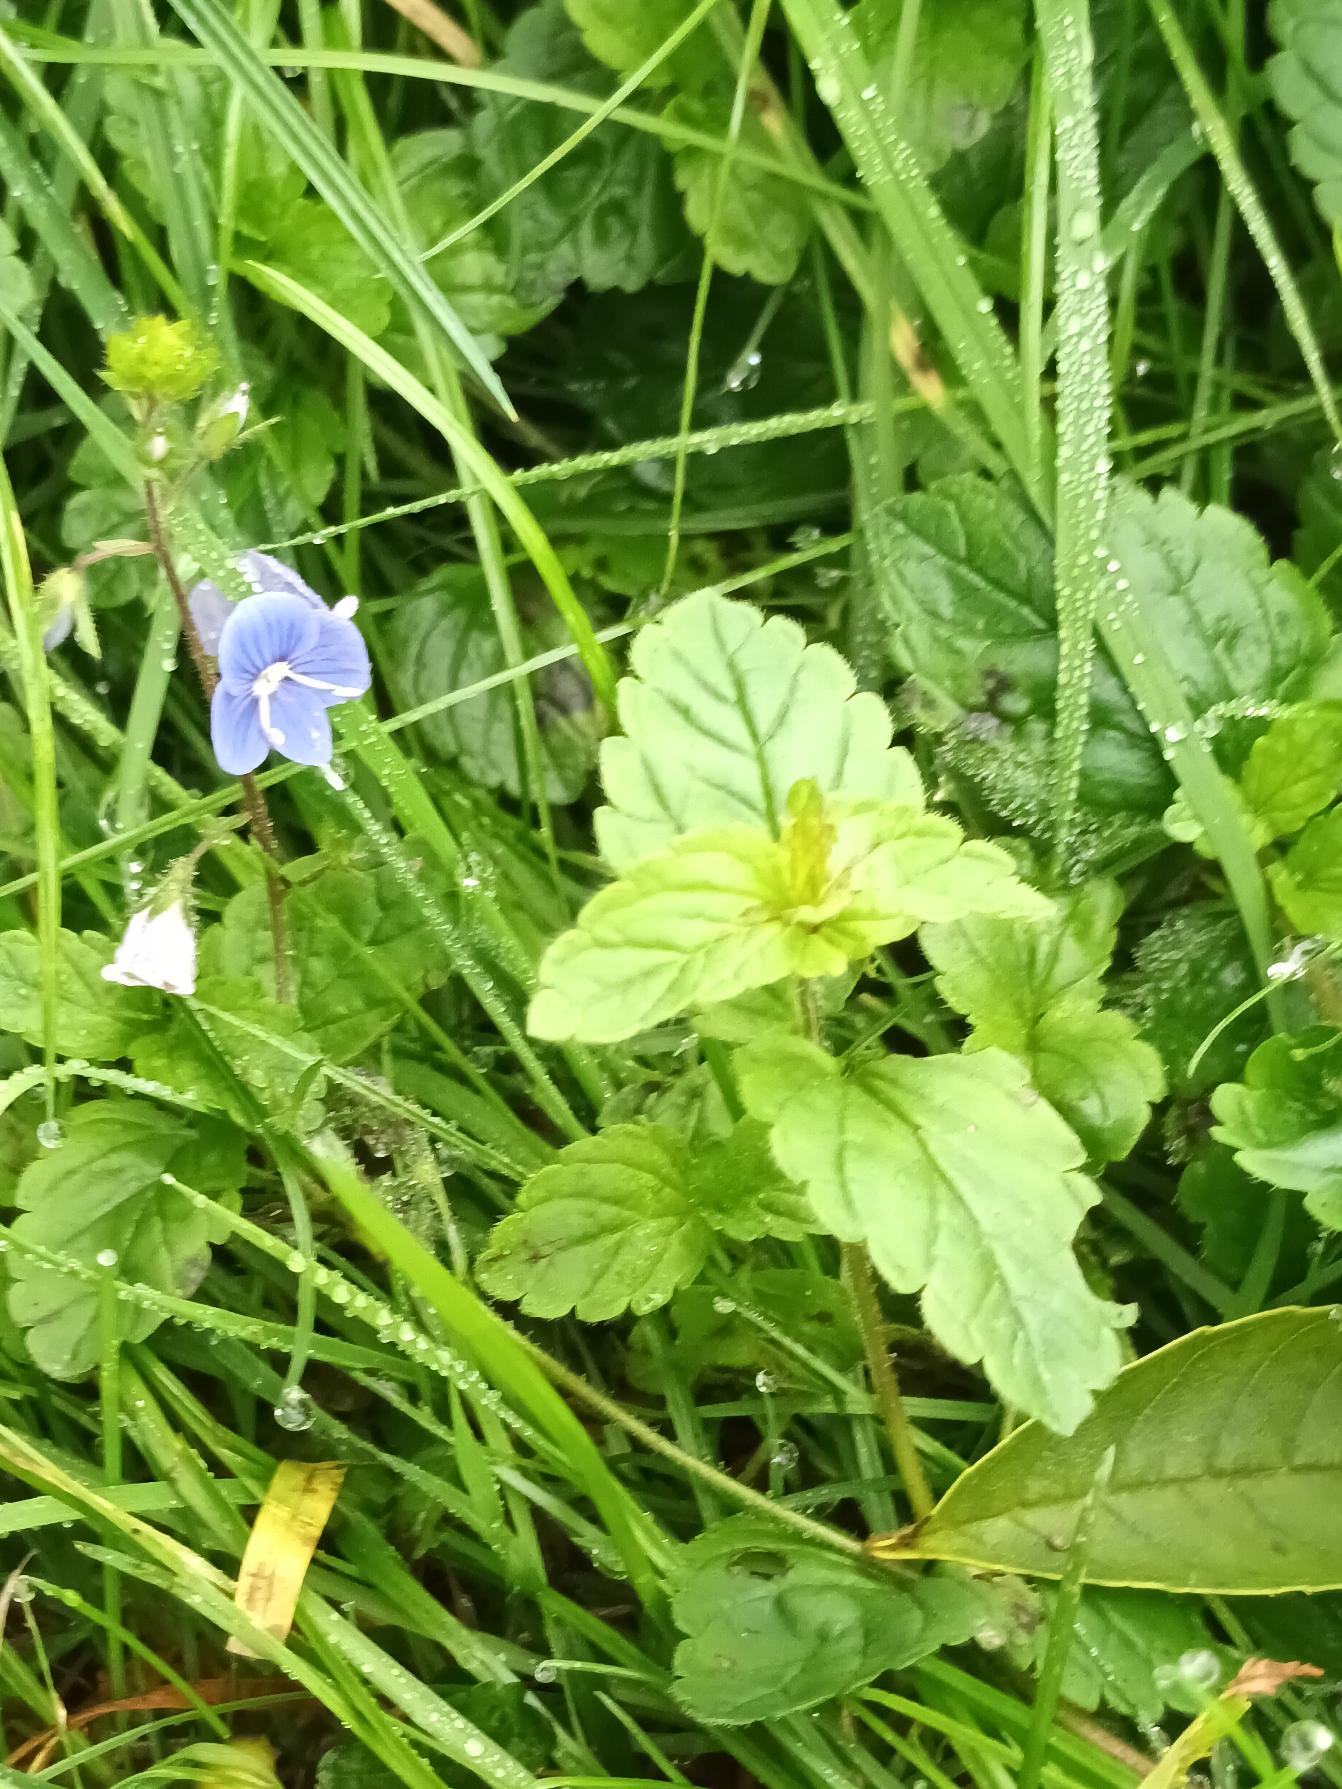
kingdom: Plantae
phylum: Tracheophyta
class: Magnoliopsida
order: Lamiales
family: Plantaginaceae
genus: Veronica
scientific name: Veronica chamaedrys
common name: Tveskægget ærenpris
